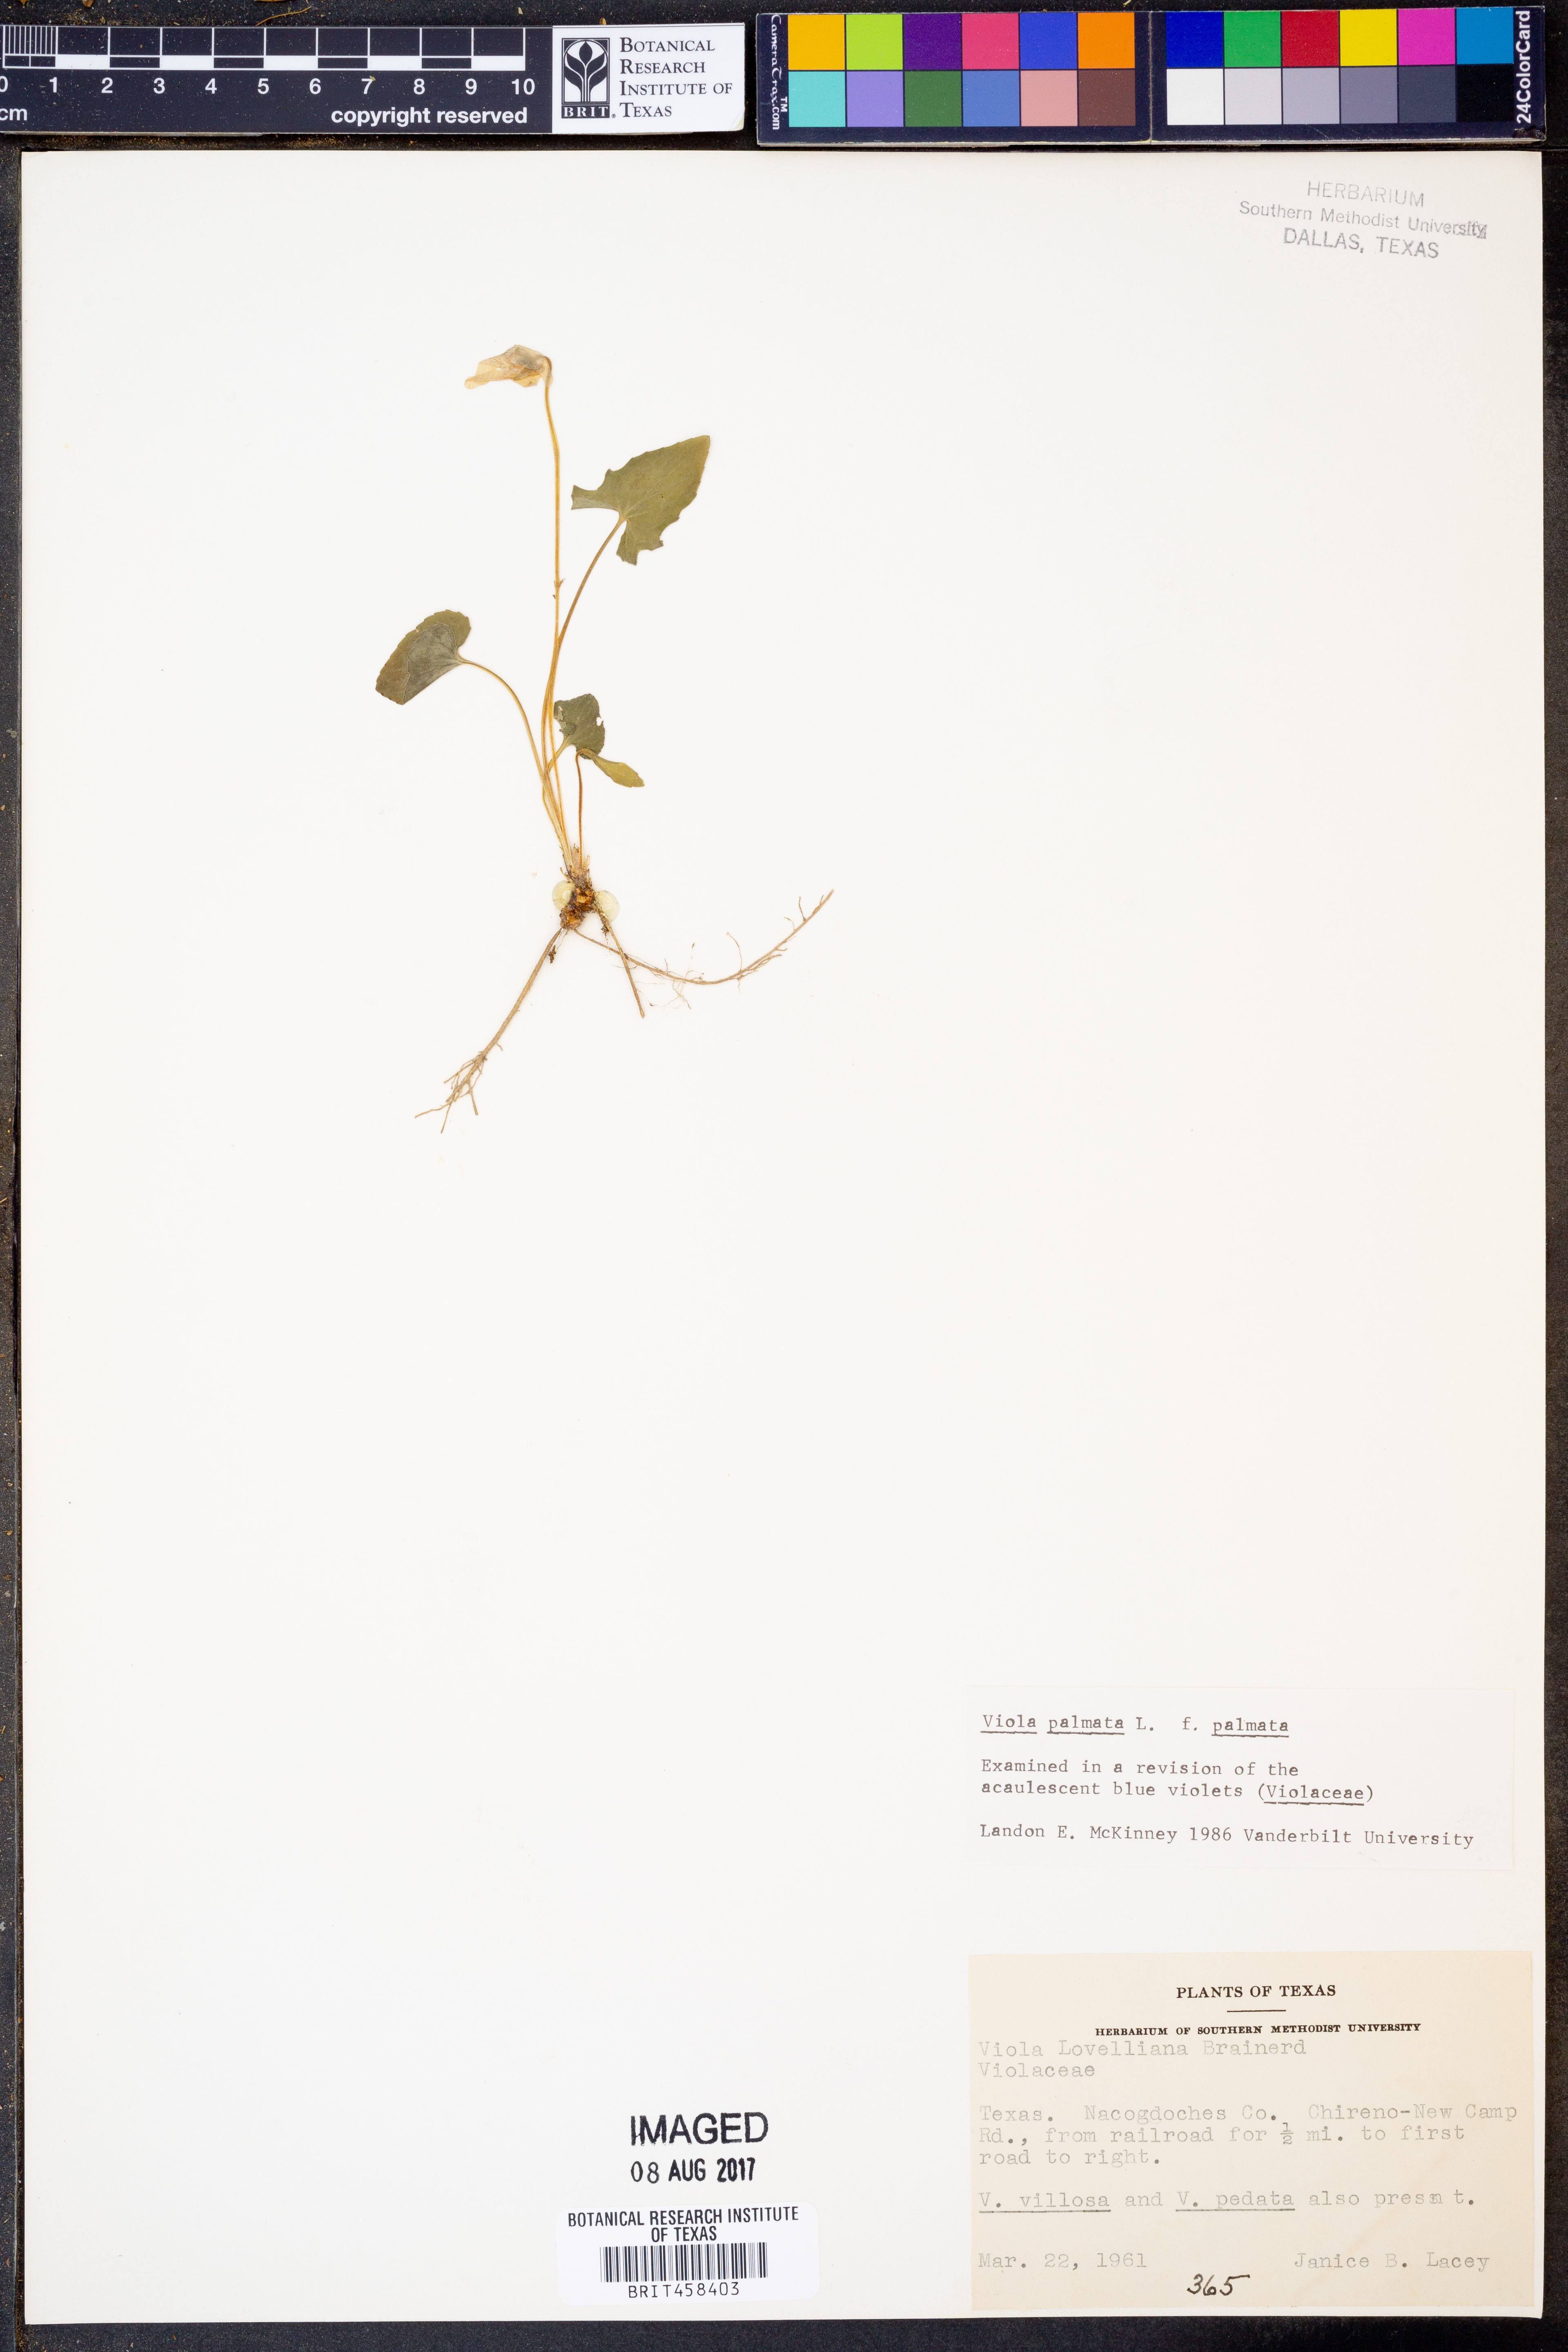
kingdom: Plantae
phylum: Tracheophyta
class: Magnoliopsida
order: Malpighiales
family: Violaceae
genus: Viola
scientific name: Viola palmata
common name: Early blue violet
